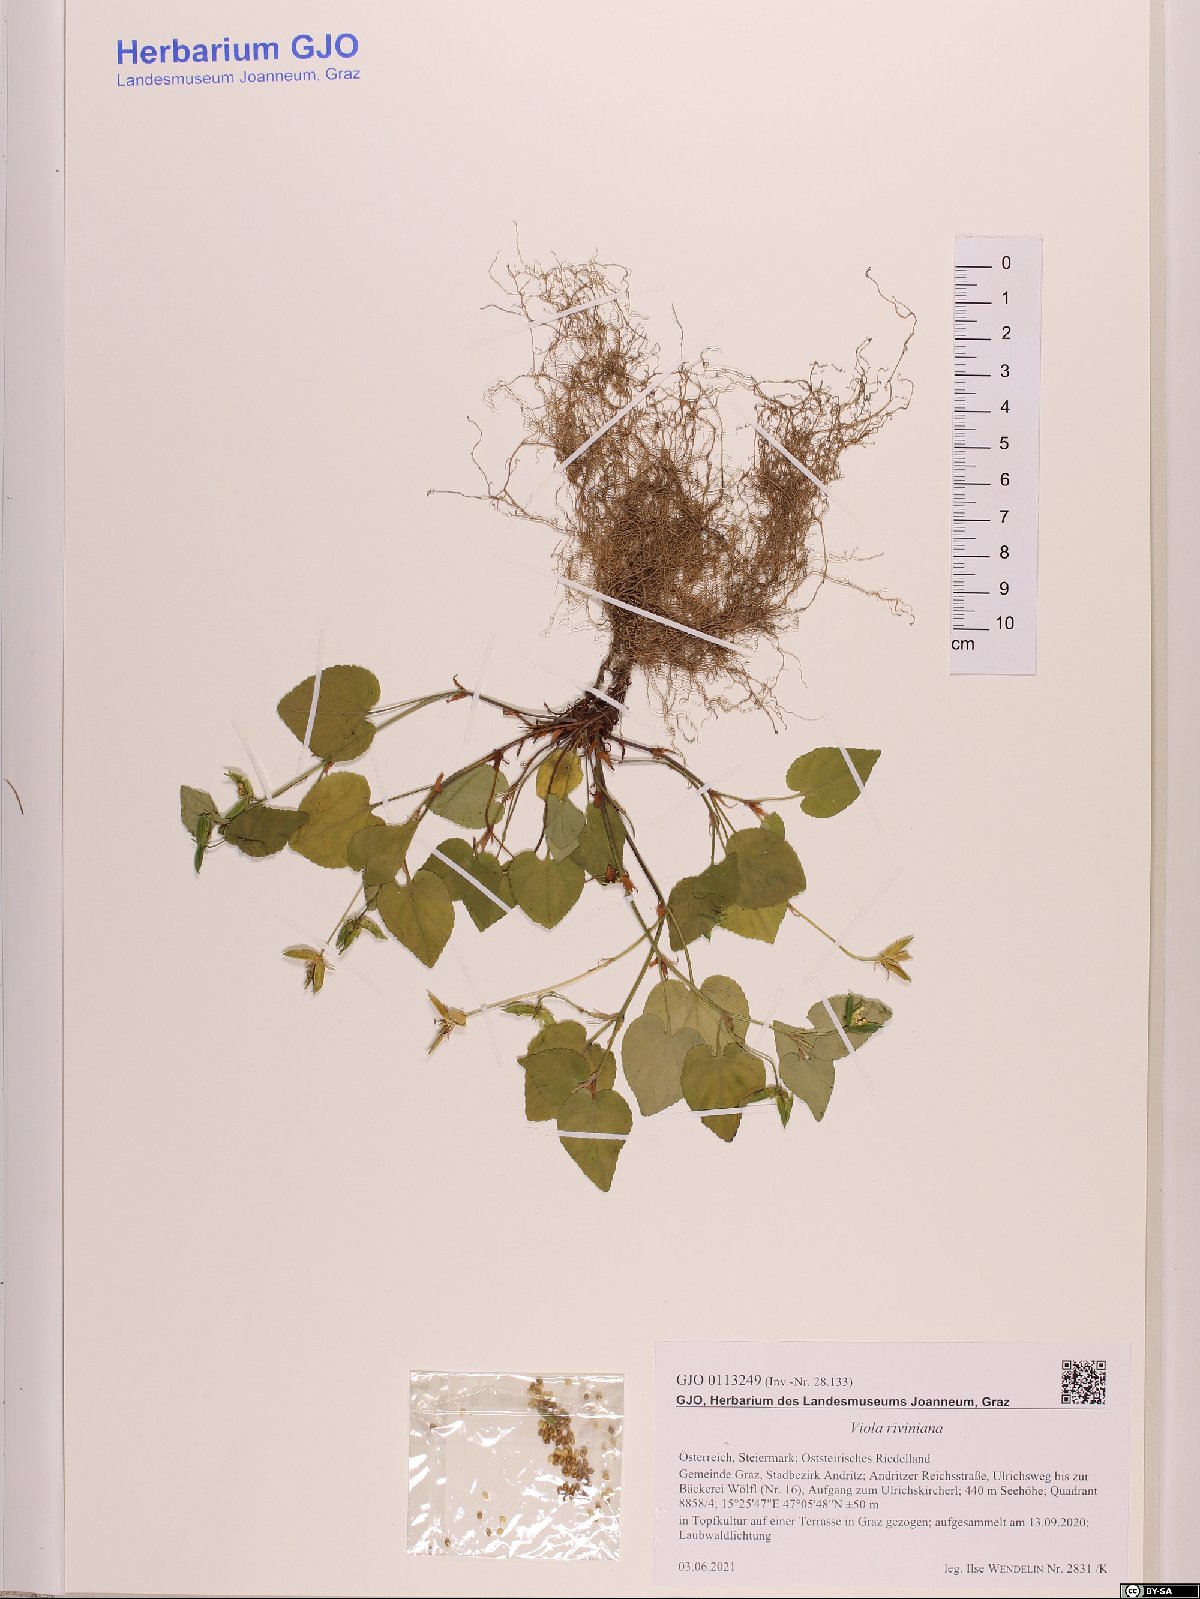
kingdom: Plantae
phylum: Tracheophyta
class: Magnoliopsida
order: Malpighiales
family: Violaceae
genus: Viola
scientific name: Viola riviniana
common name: Common dog-violet
